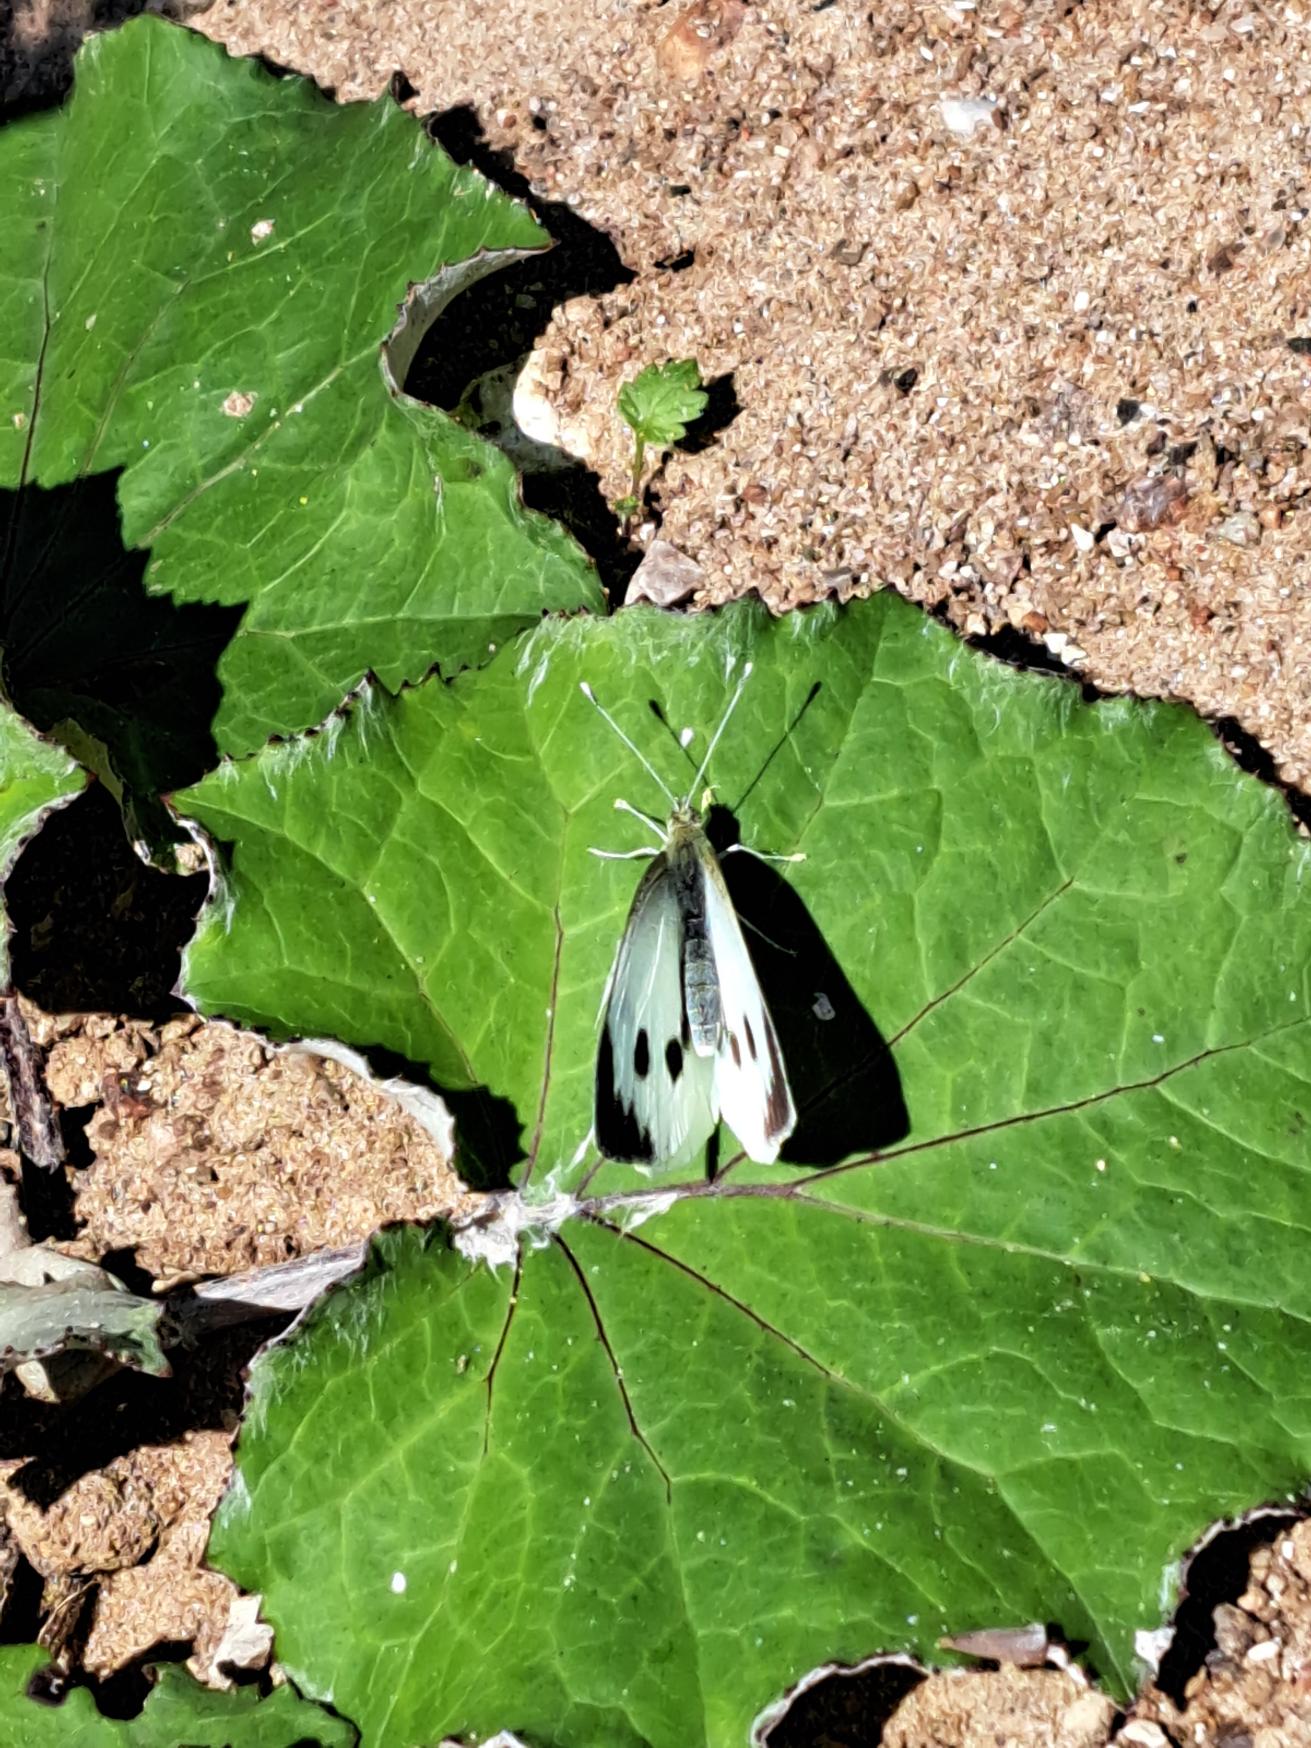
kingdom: Animalia
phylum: Arthropoda
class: Insecta
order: Lepidoptera
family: Pieridae
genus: Pieris
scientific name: Pieris brassicae
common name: Stor kålsommerfugl
